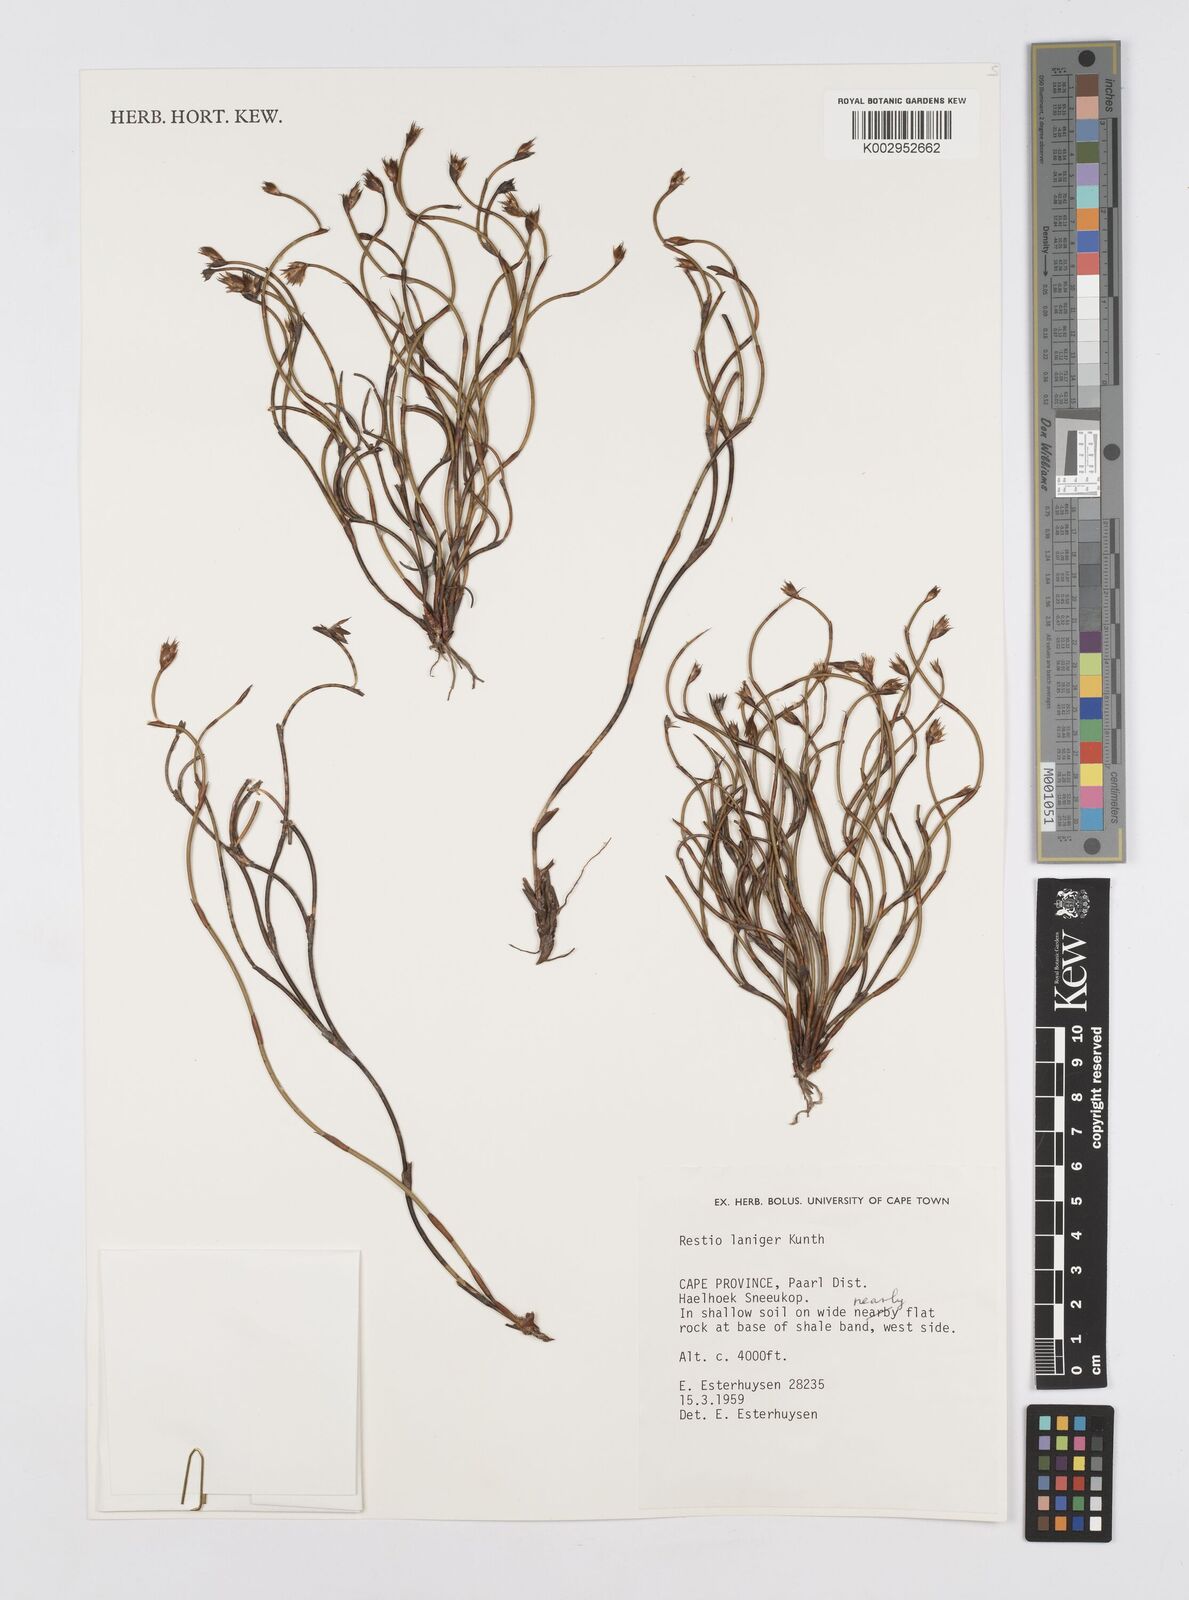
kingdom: Plantae
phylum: Tracheophyta
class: Liliopsida
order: Poales
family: Restionaceae
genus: Restio
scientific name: Restio laniger
